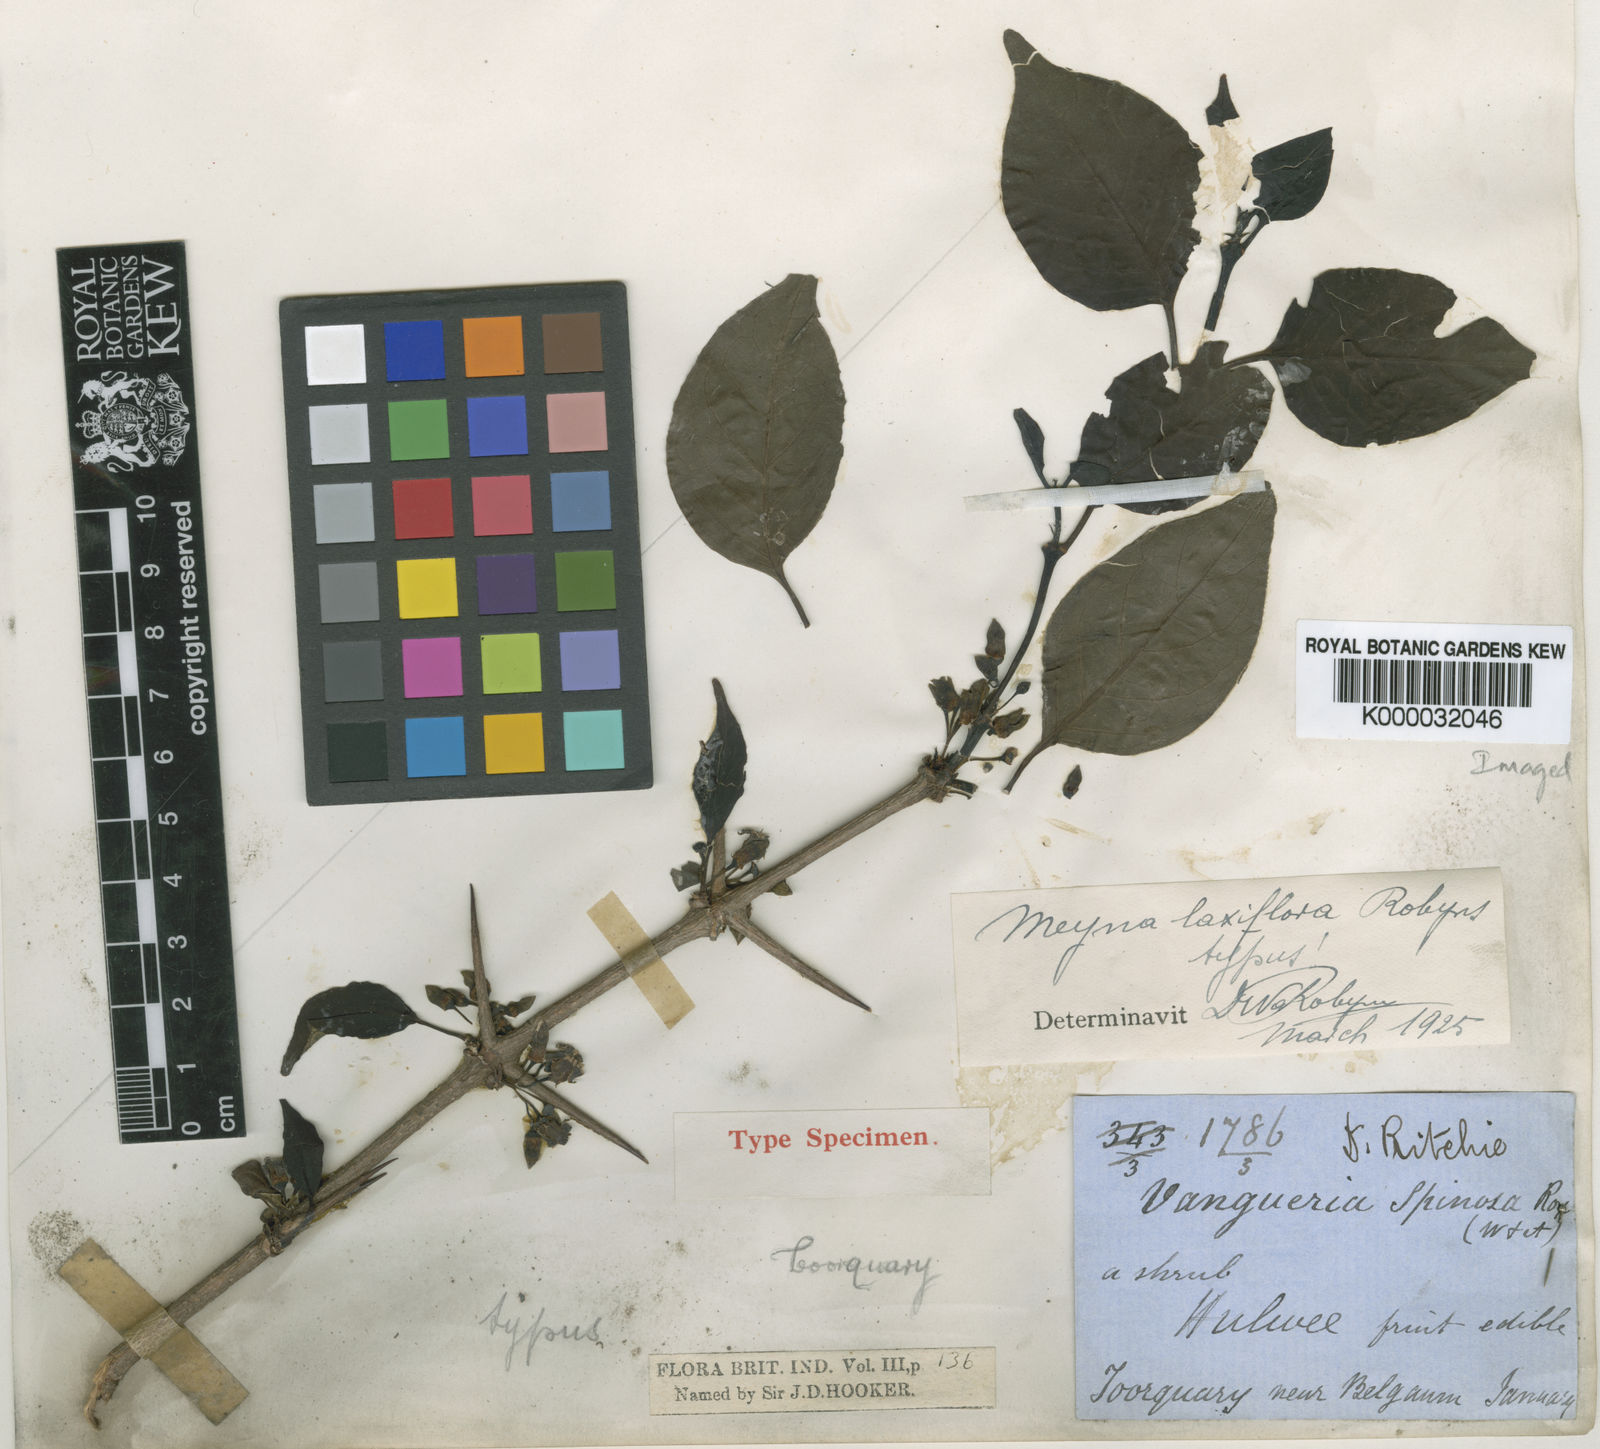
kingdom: Plantae
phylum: Tracheophyta
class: Magnoliopsida
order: Gentianales
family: Rubiaceae
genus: Meyna
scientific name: Meyna laxiflora
